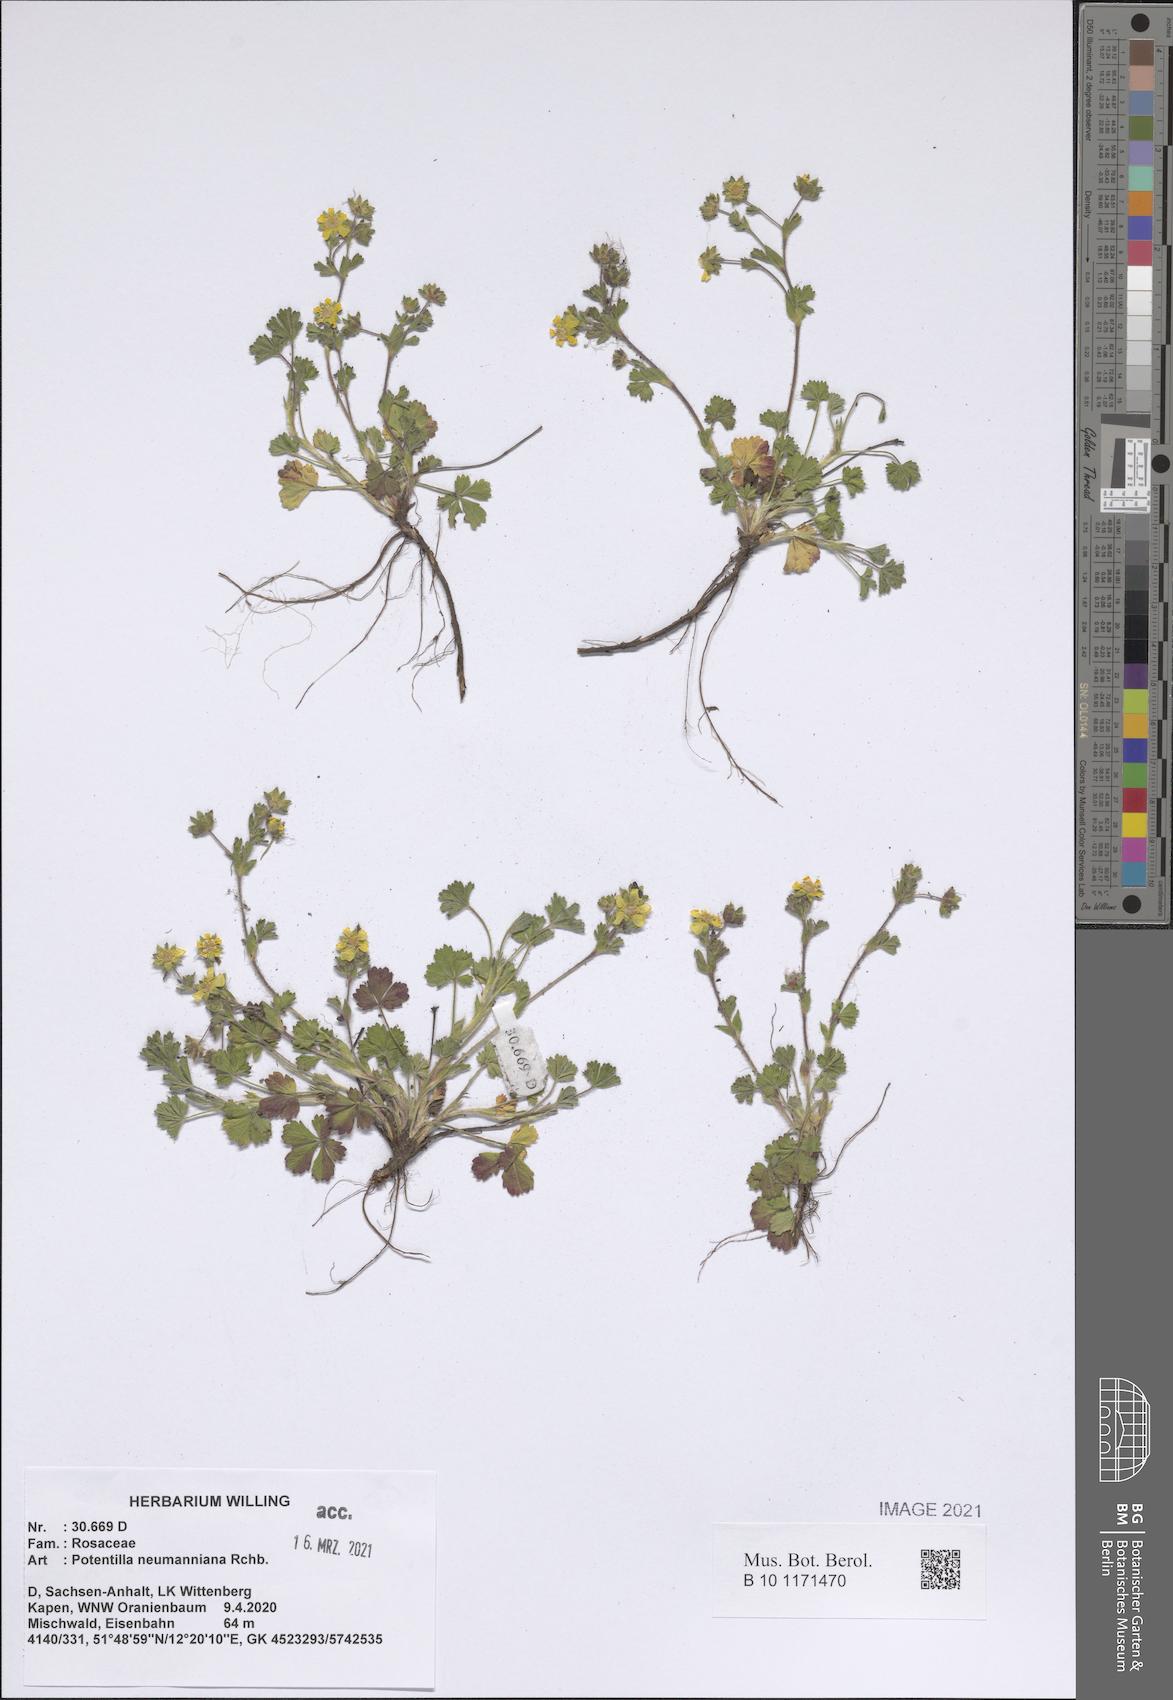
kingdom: Plantae
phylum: Tracheophyta
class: Magnoliopsida
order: Rosales
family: Rosaceae
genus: Potentilla
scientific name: Potentilla verna
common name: Spring cinquefoil
